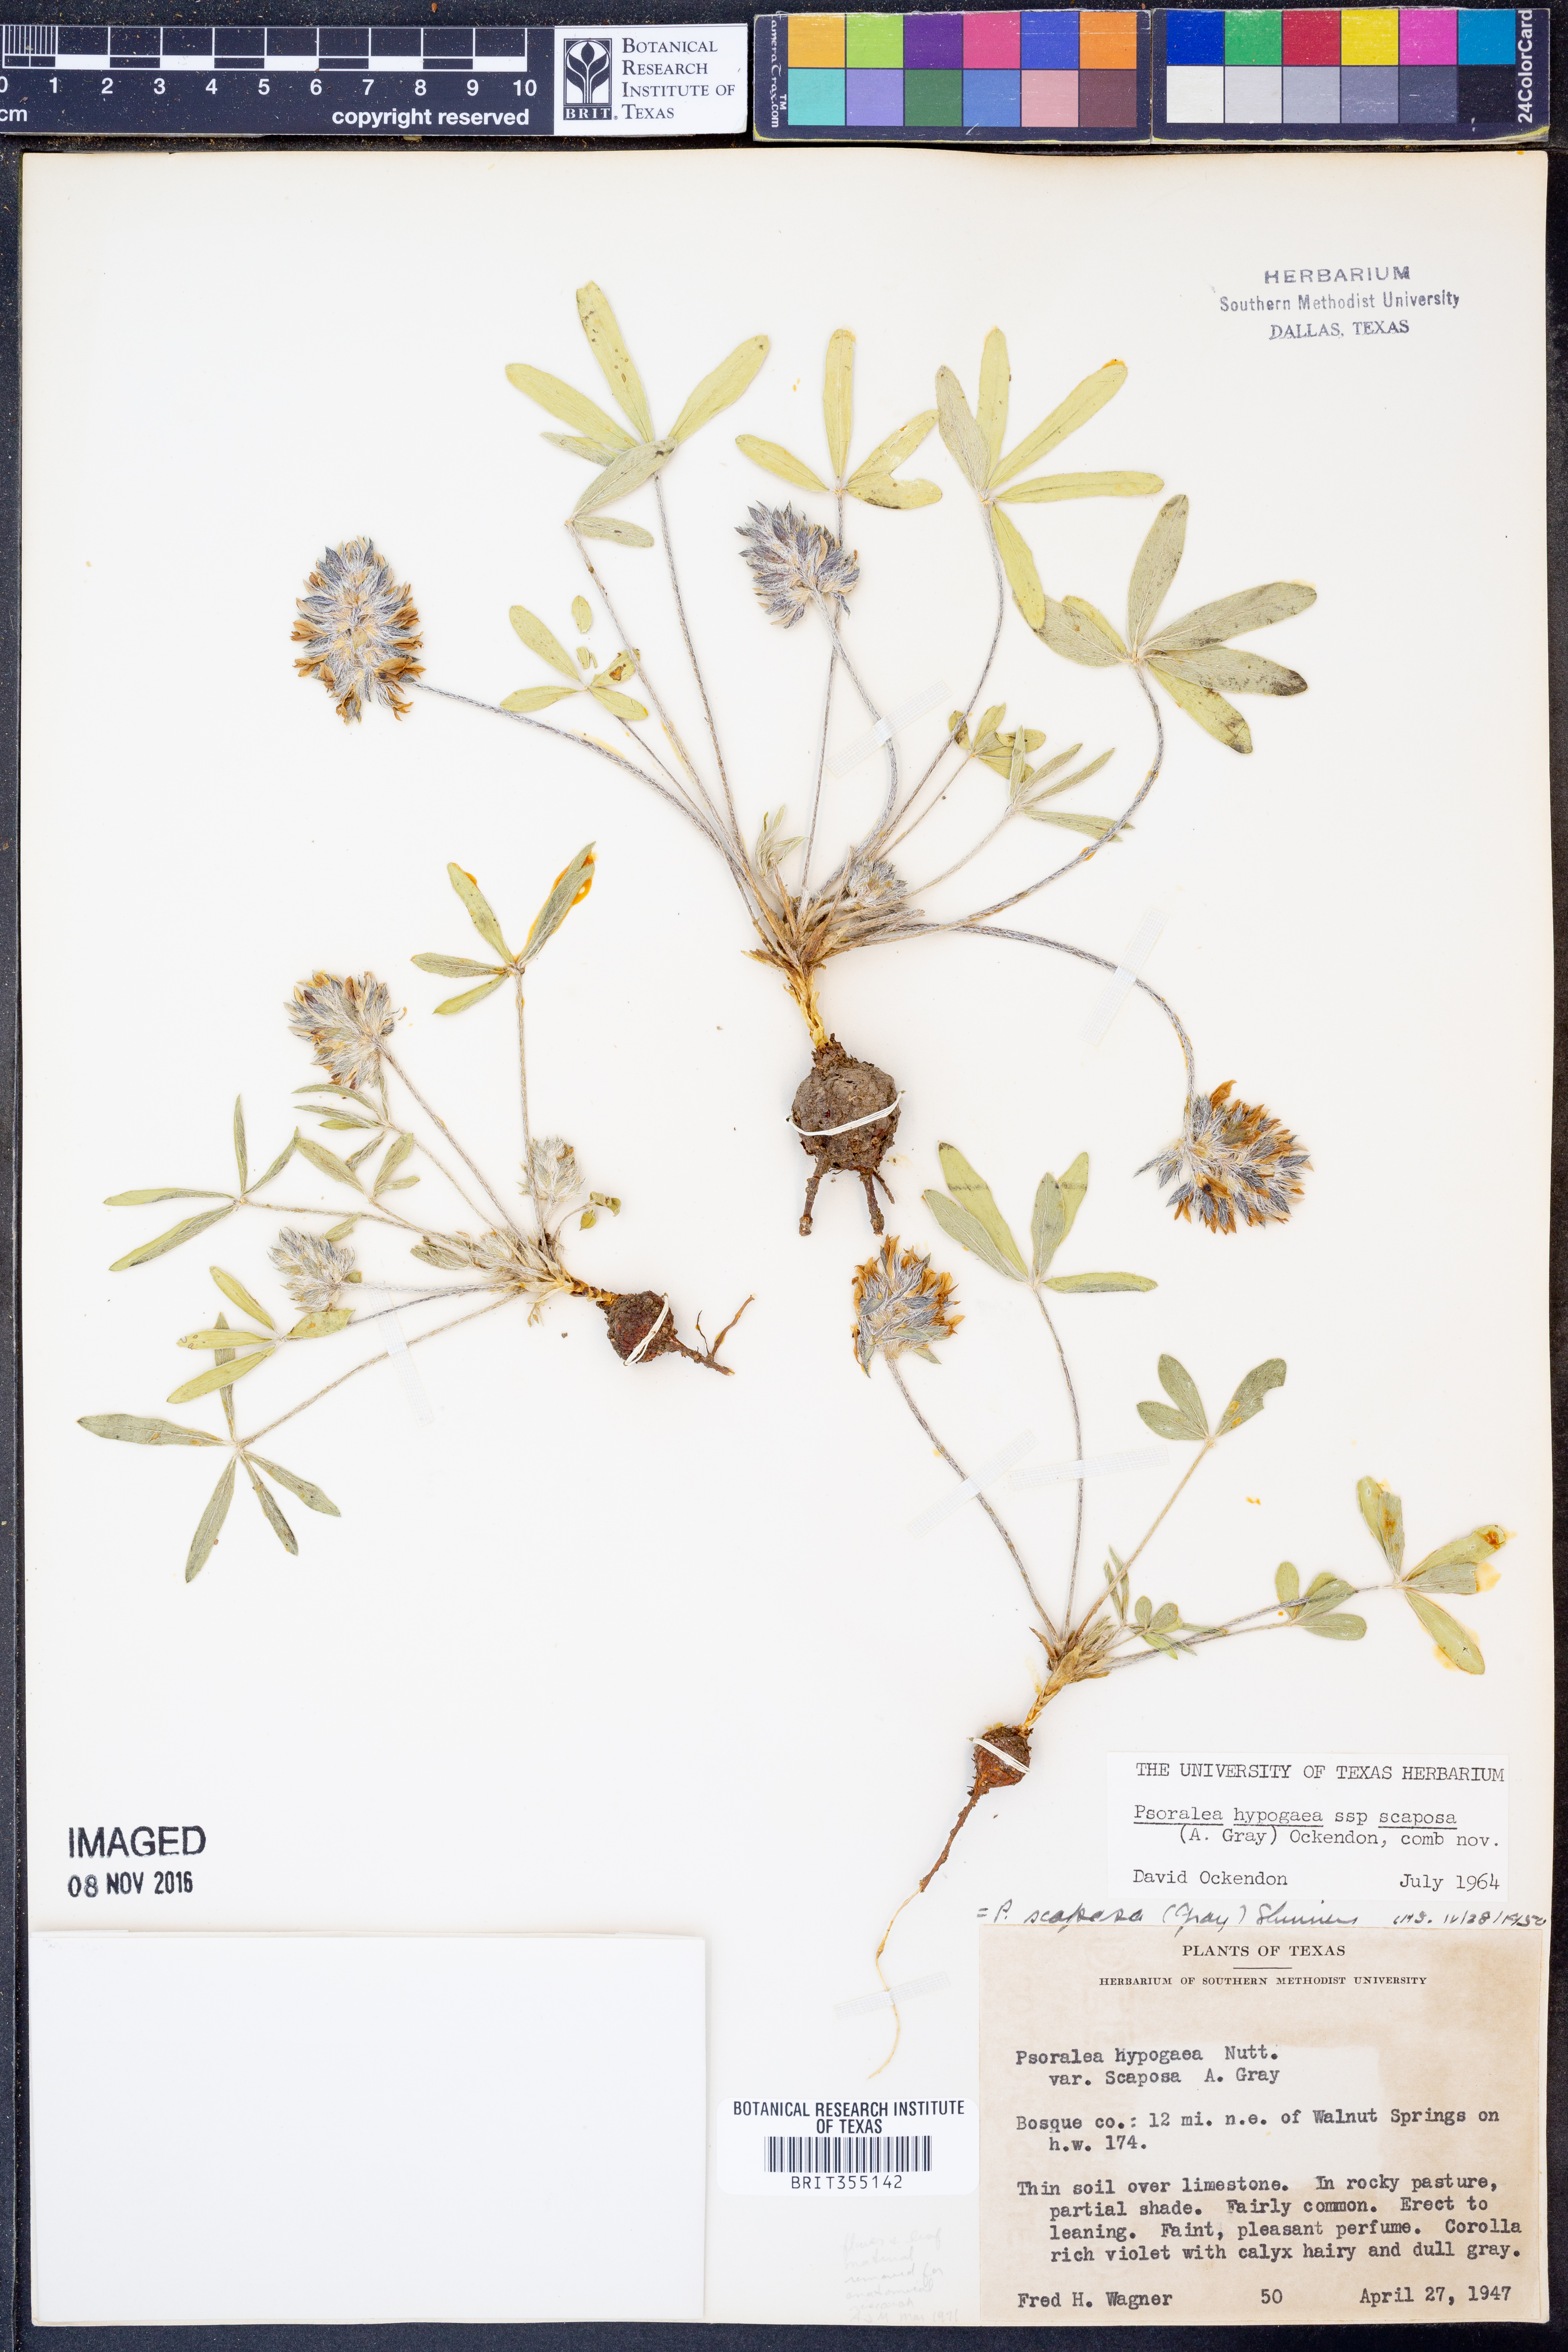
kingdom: Plantae
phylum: Tracheophyta
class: Magnoliopsida
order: Fabales
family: Fabaceae
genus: Pediomelum
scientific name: Pediomelum hypogaeum
